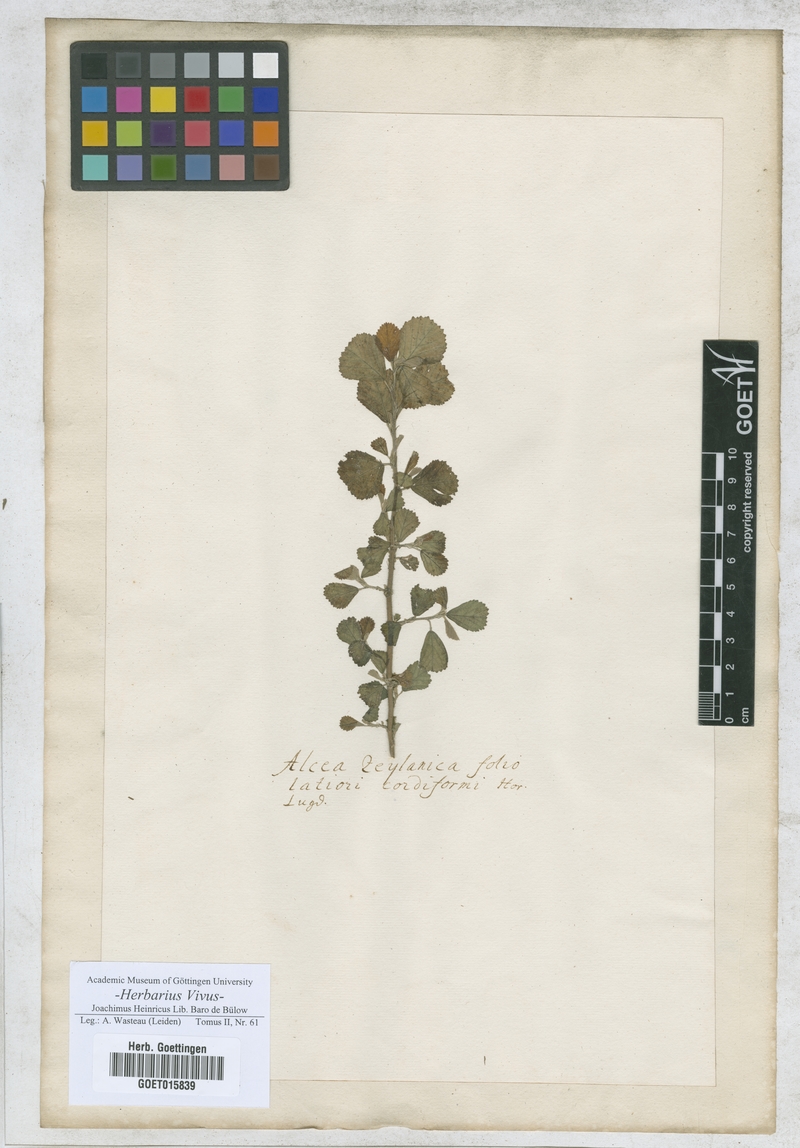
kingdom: Plantae
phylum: Tracheophyta
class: Magnoliopsida
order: Malvales
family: Malvaceae
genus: Alcea
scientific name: Alcea
